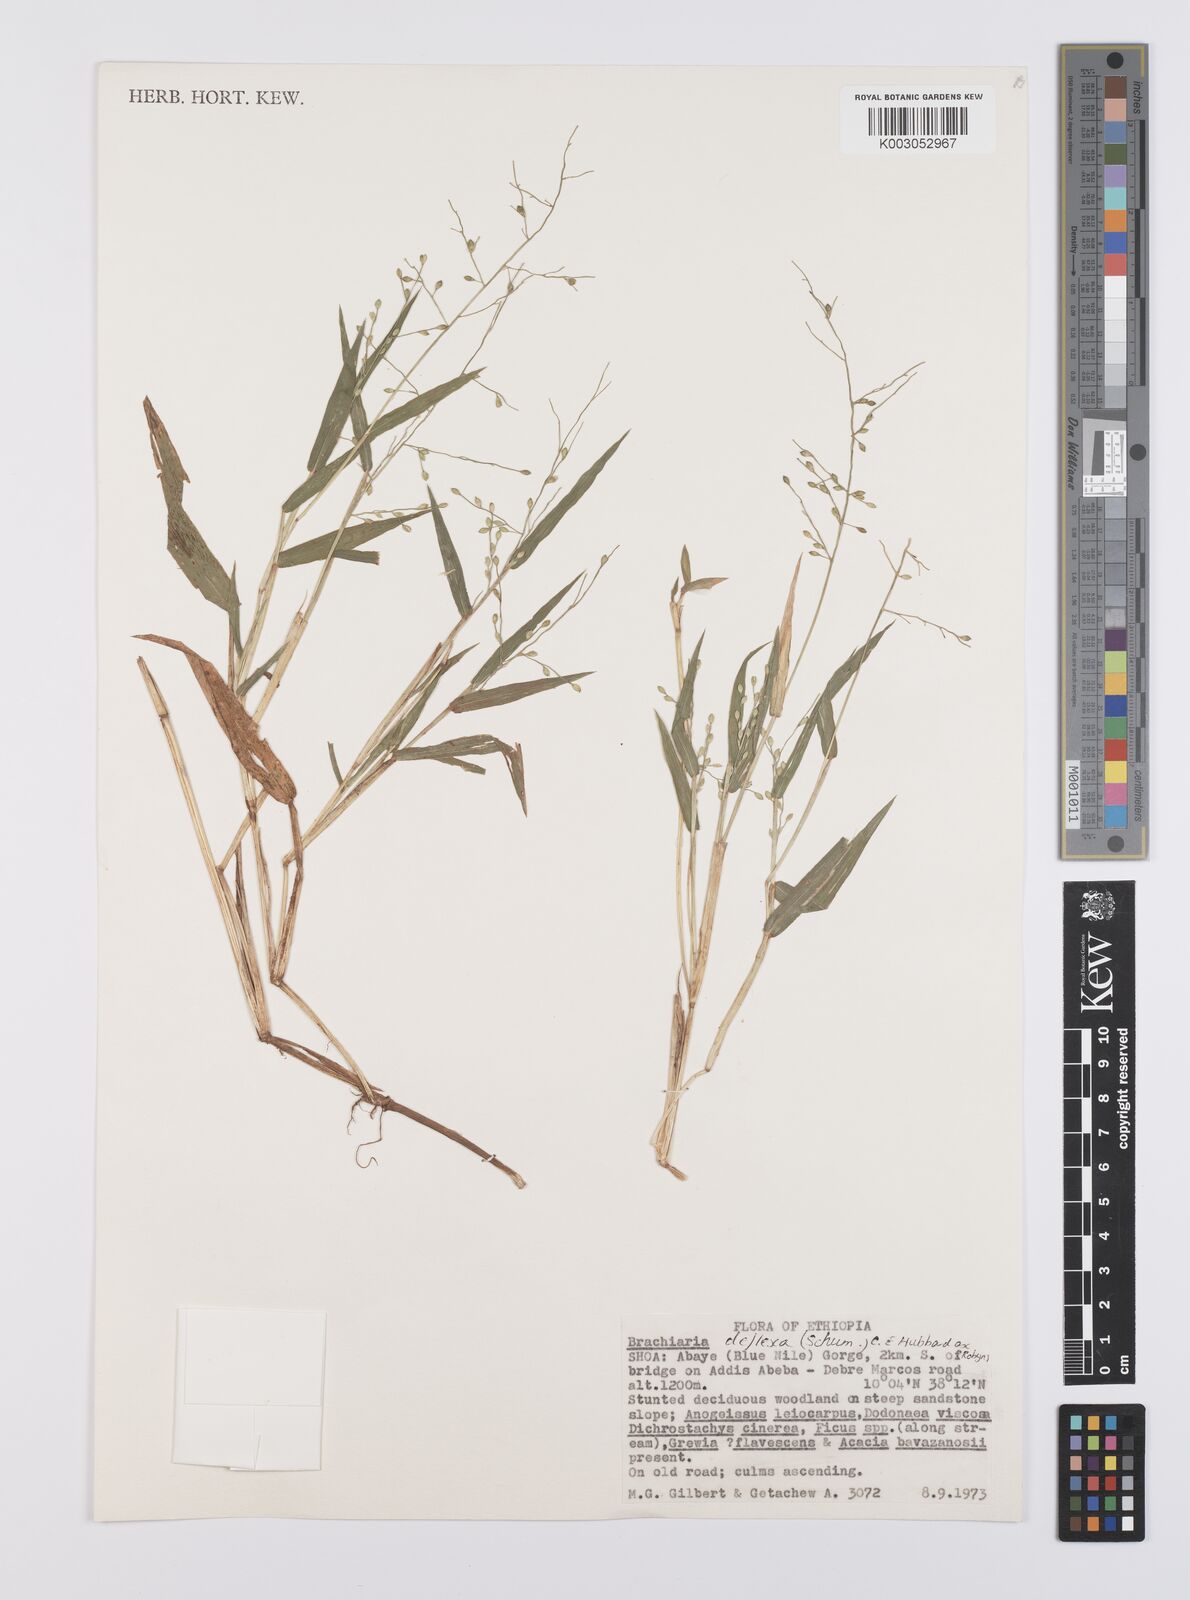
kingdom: Plantae
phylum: Tracheophyta
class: Liliopsida
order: Poales
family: Poaceae
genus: Urochloa
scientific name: Urochloa deflexa
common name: Guinea millet
